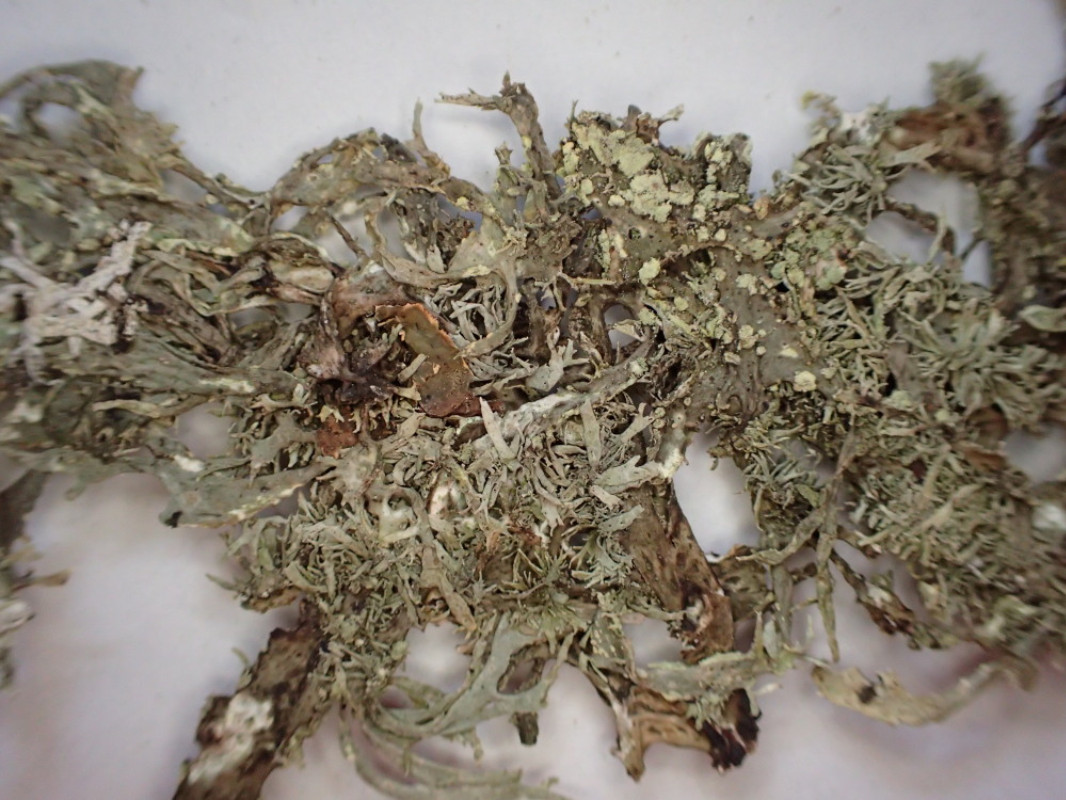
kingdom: Fungi
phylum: Ascomycota
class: Lecanoromycetes
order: Lecanorales
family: Parmeliaceae
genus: Pseudevernia
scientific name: Pseudevernia furfuracea
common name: grå fyrrelav
